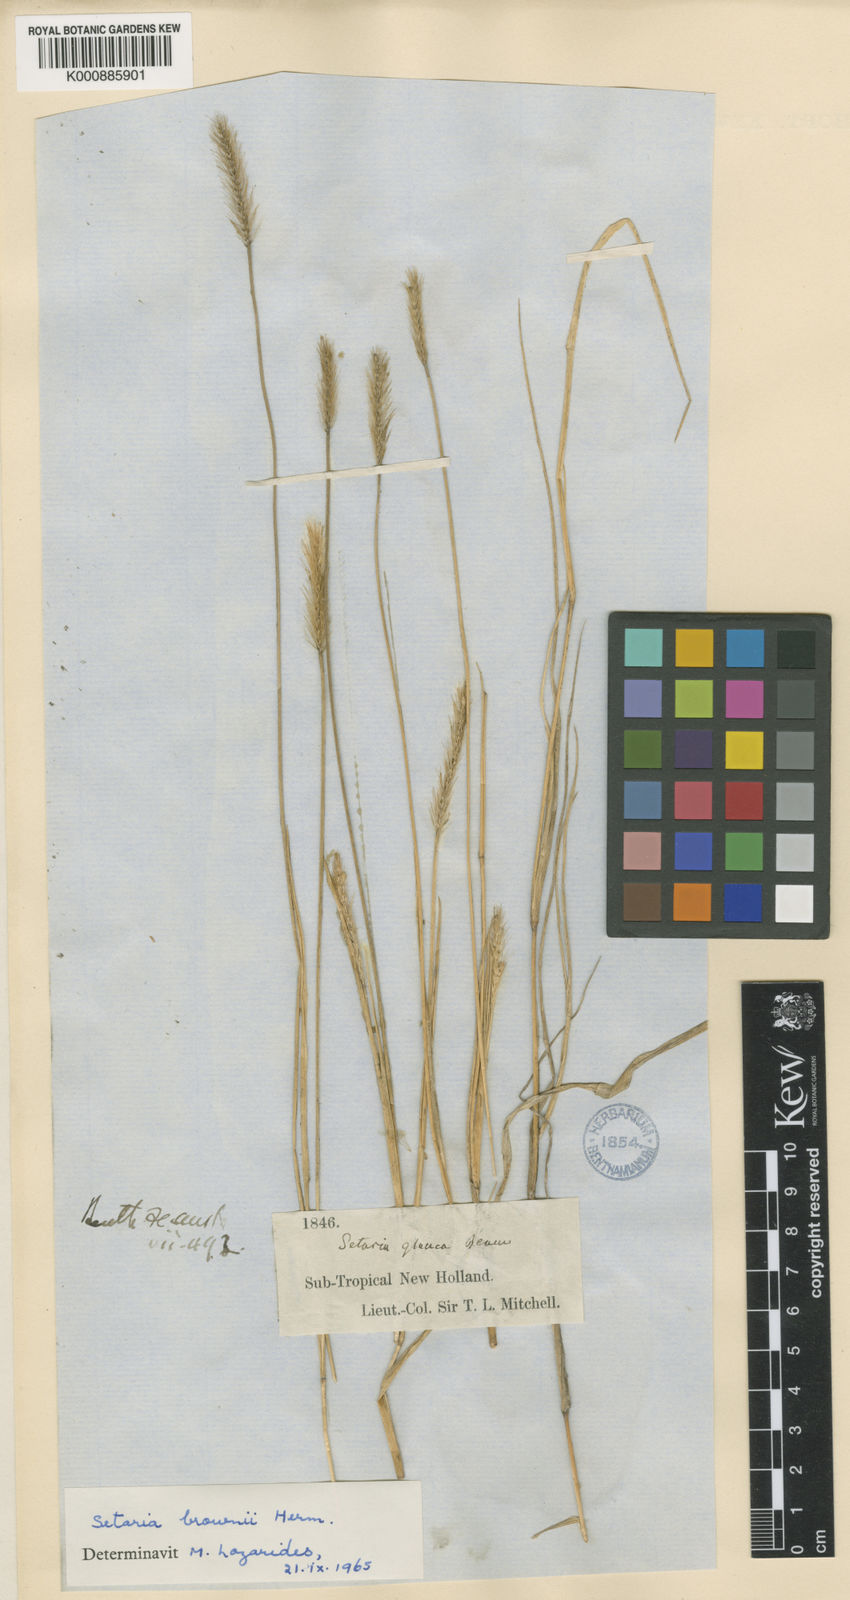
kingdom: Plantae
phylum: Tracheophyta
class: Liliopsida
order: Poales
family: Poaceae
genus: Setaria
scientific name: Setaria apiculata
